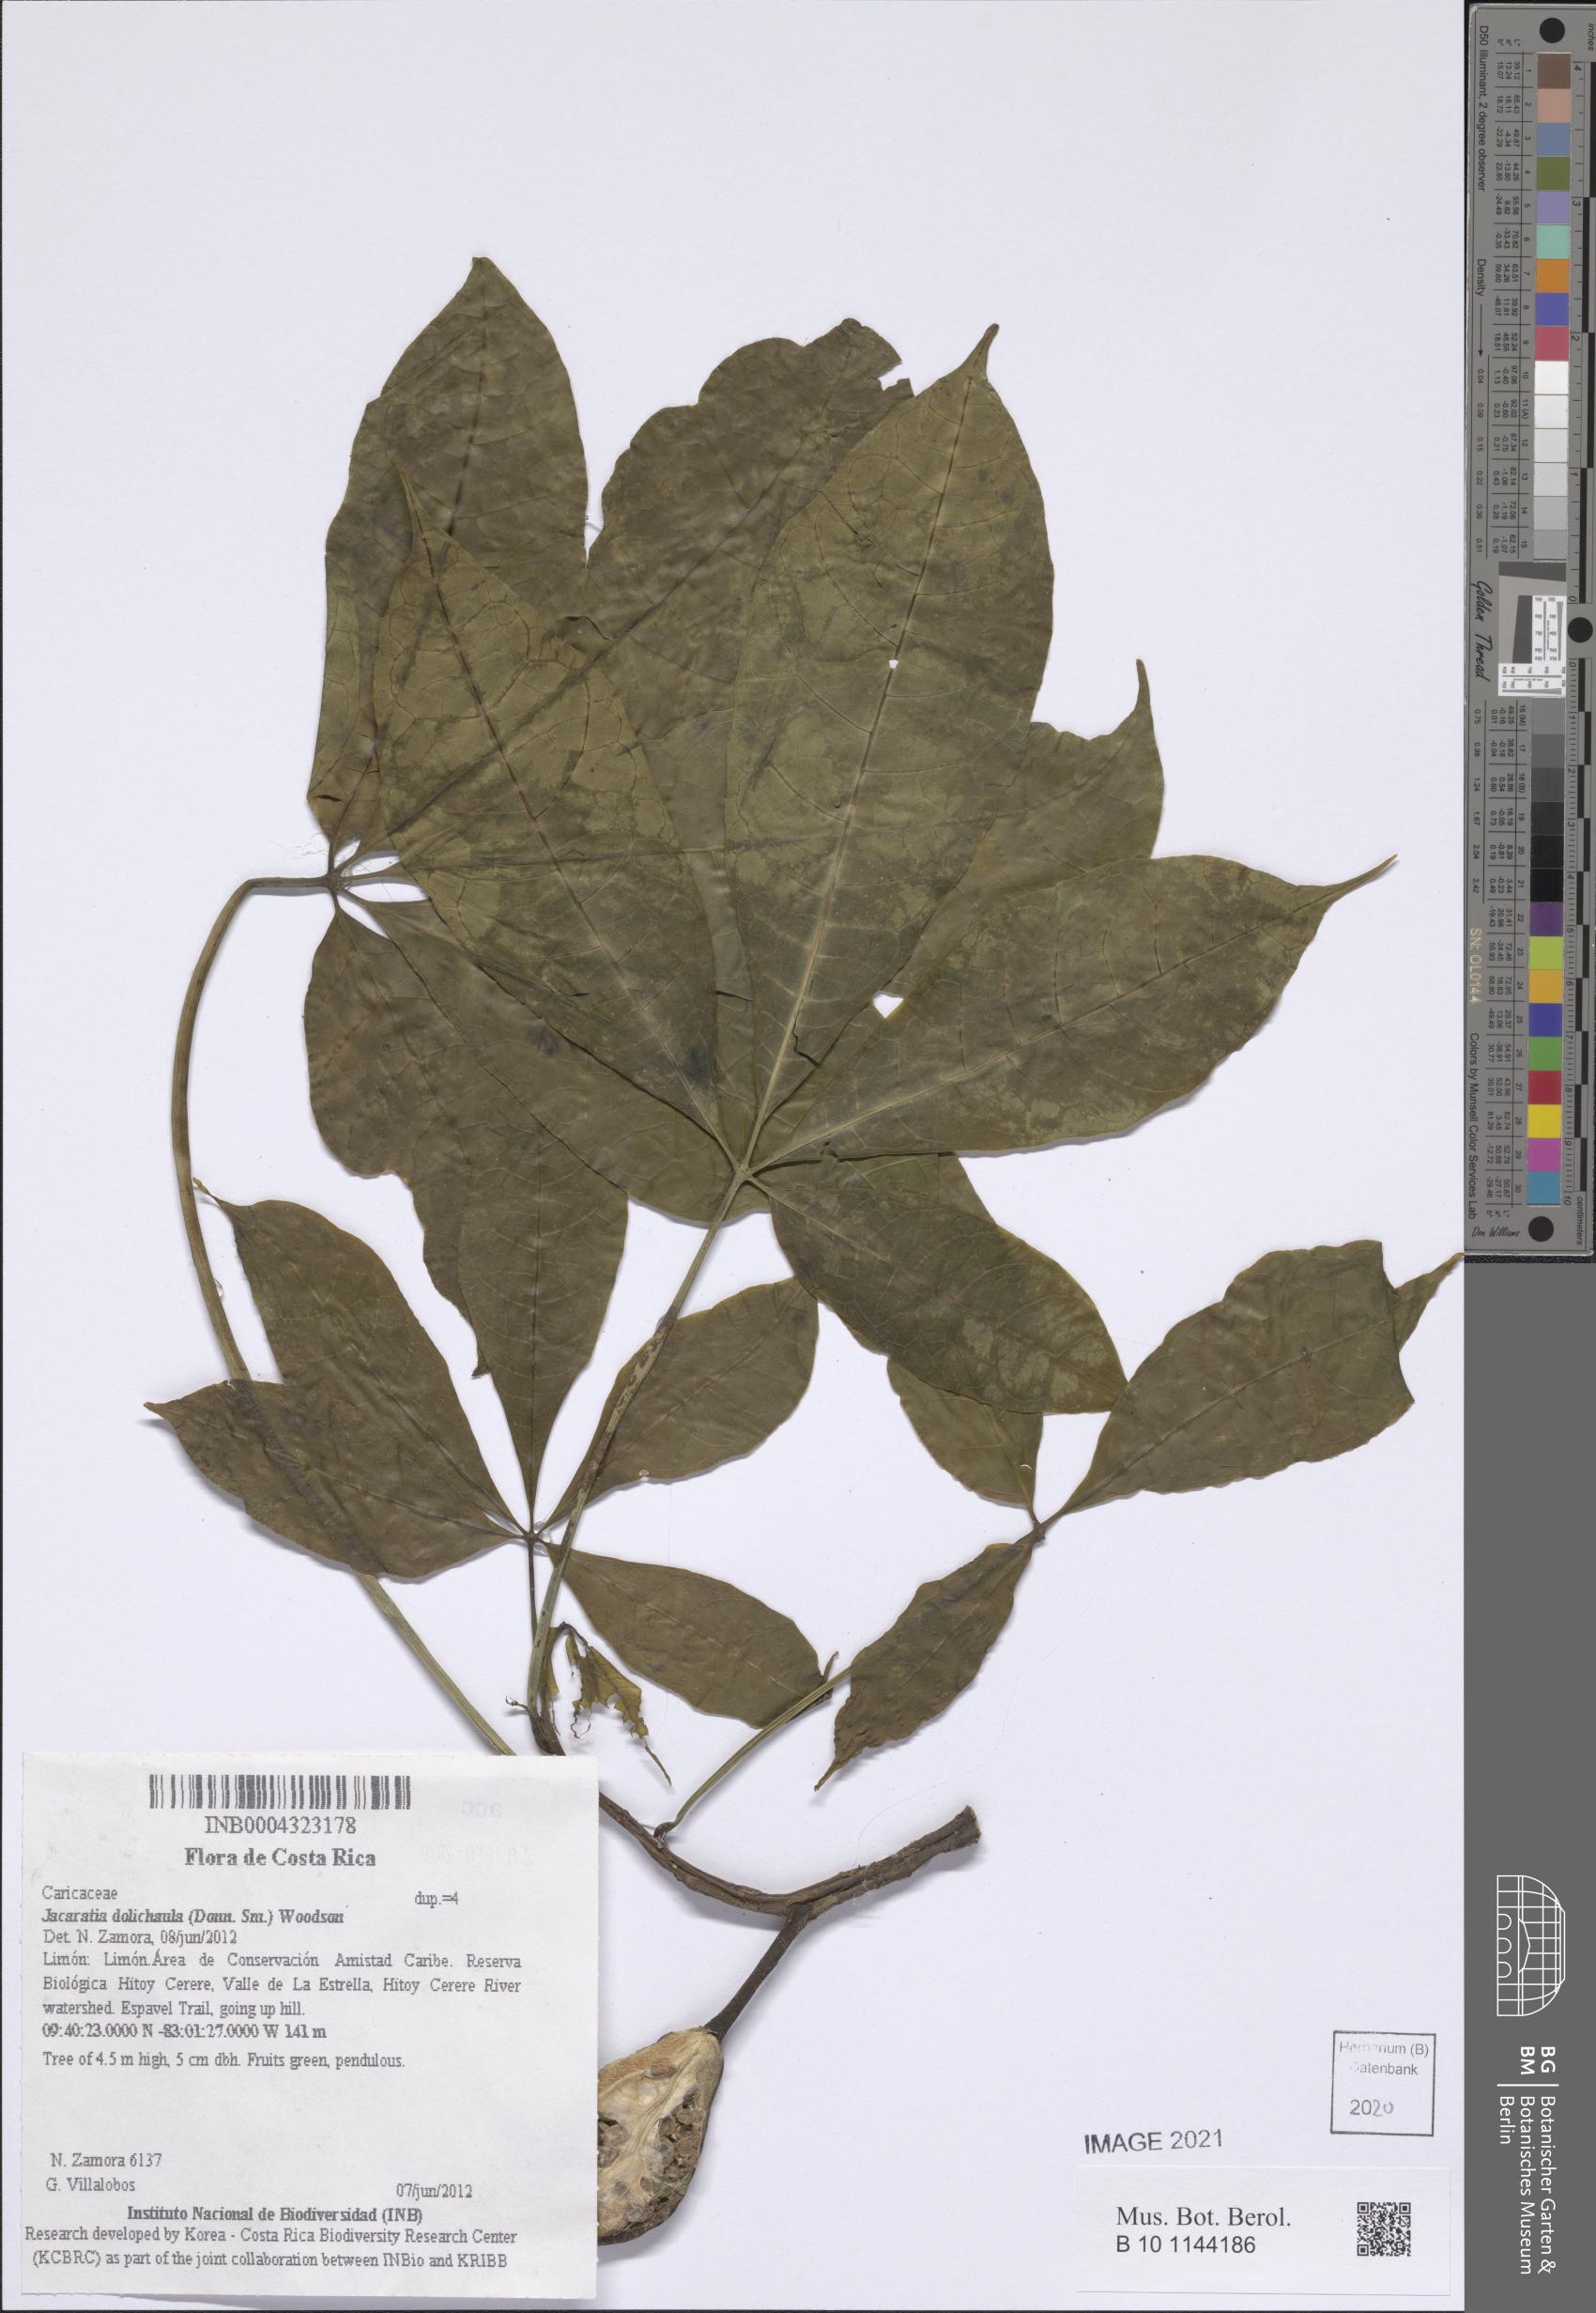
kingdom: Plantae
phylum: Tracheophyta
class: Magnoliopsida
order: Brassicales
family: Caricaceae
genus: Jacaratia
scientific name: Jacaratia dolichaula
